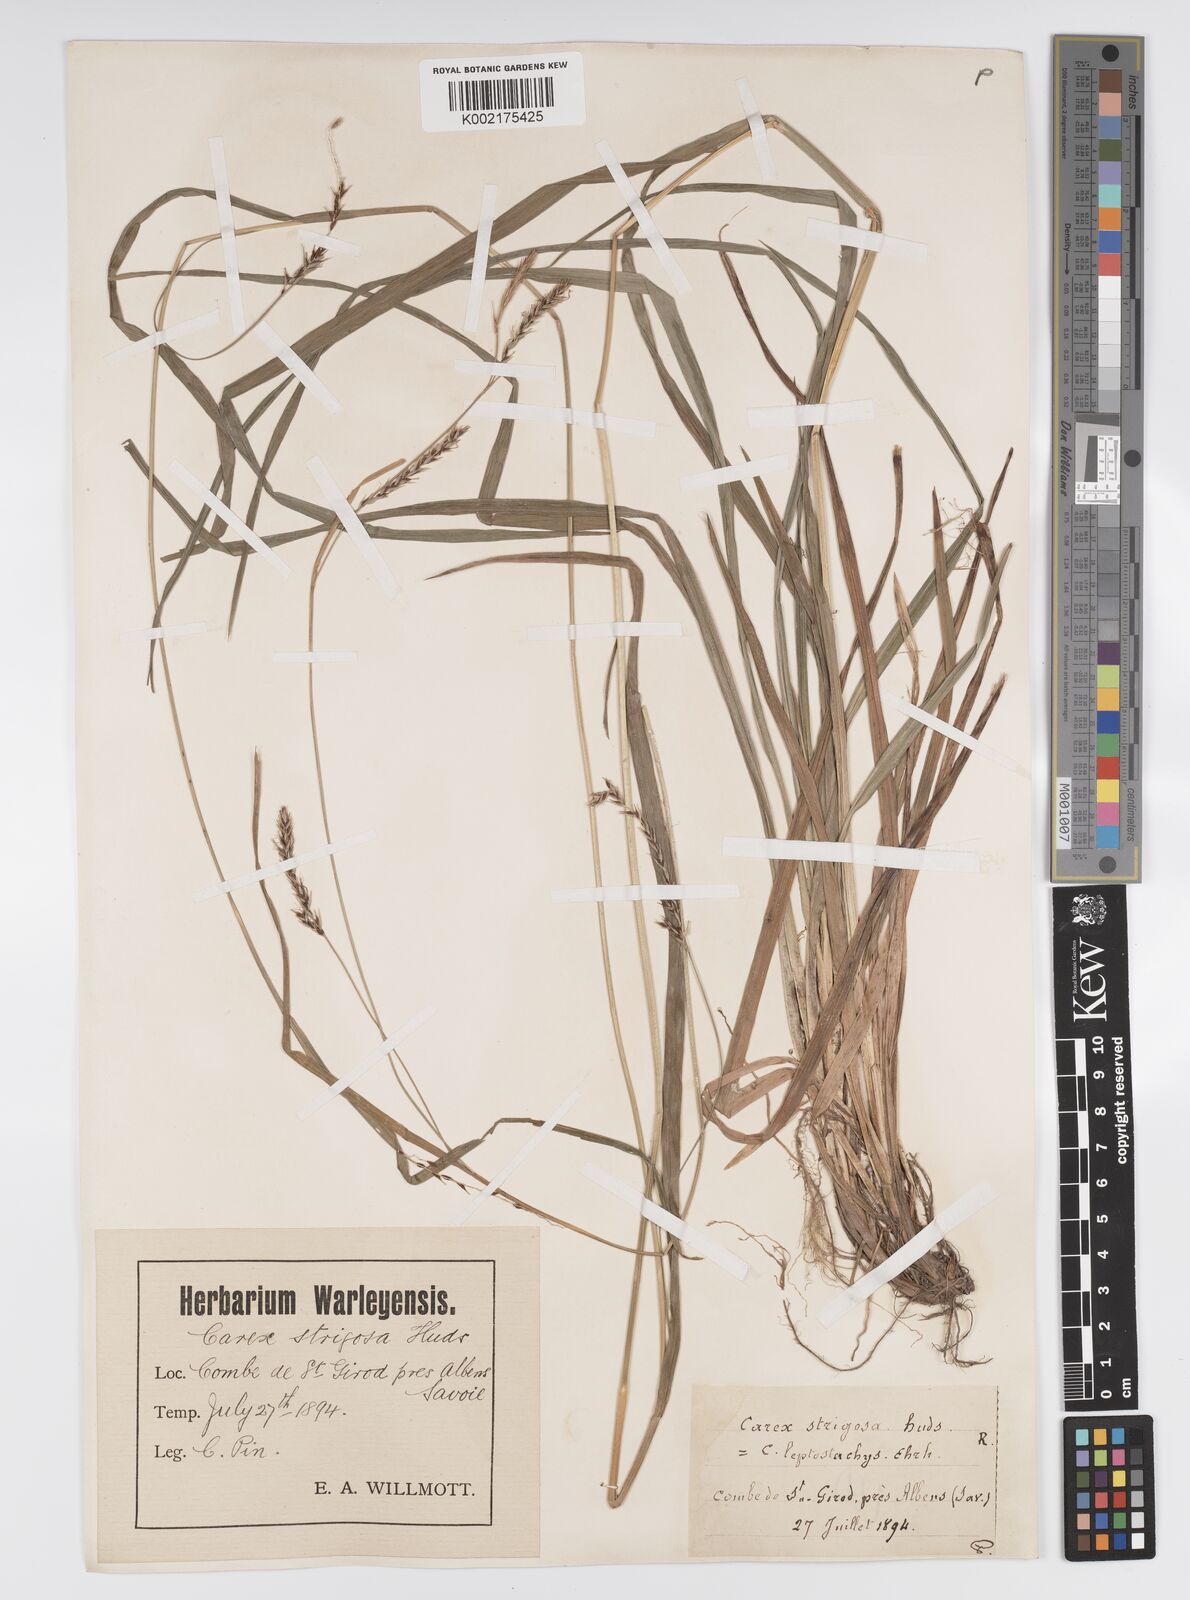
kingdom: Plantae
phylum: Tracheophyta
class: Liliopsida
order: Poales
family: Cyperaceae
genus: Carex
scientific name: Carex sylvatica
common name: Wood-sedge
